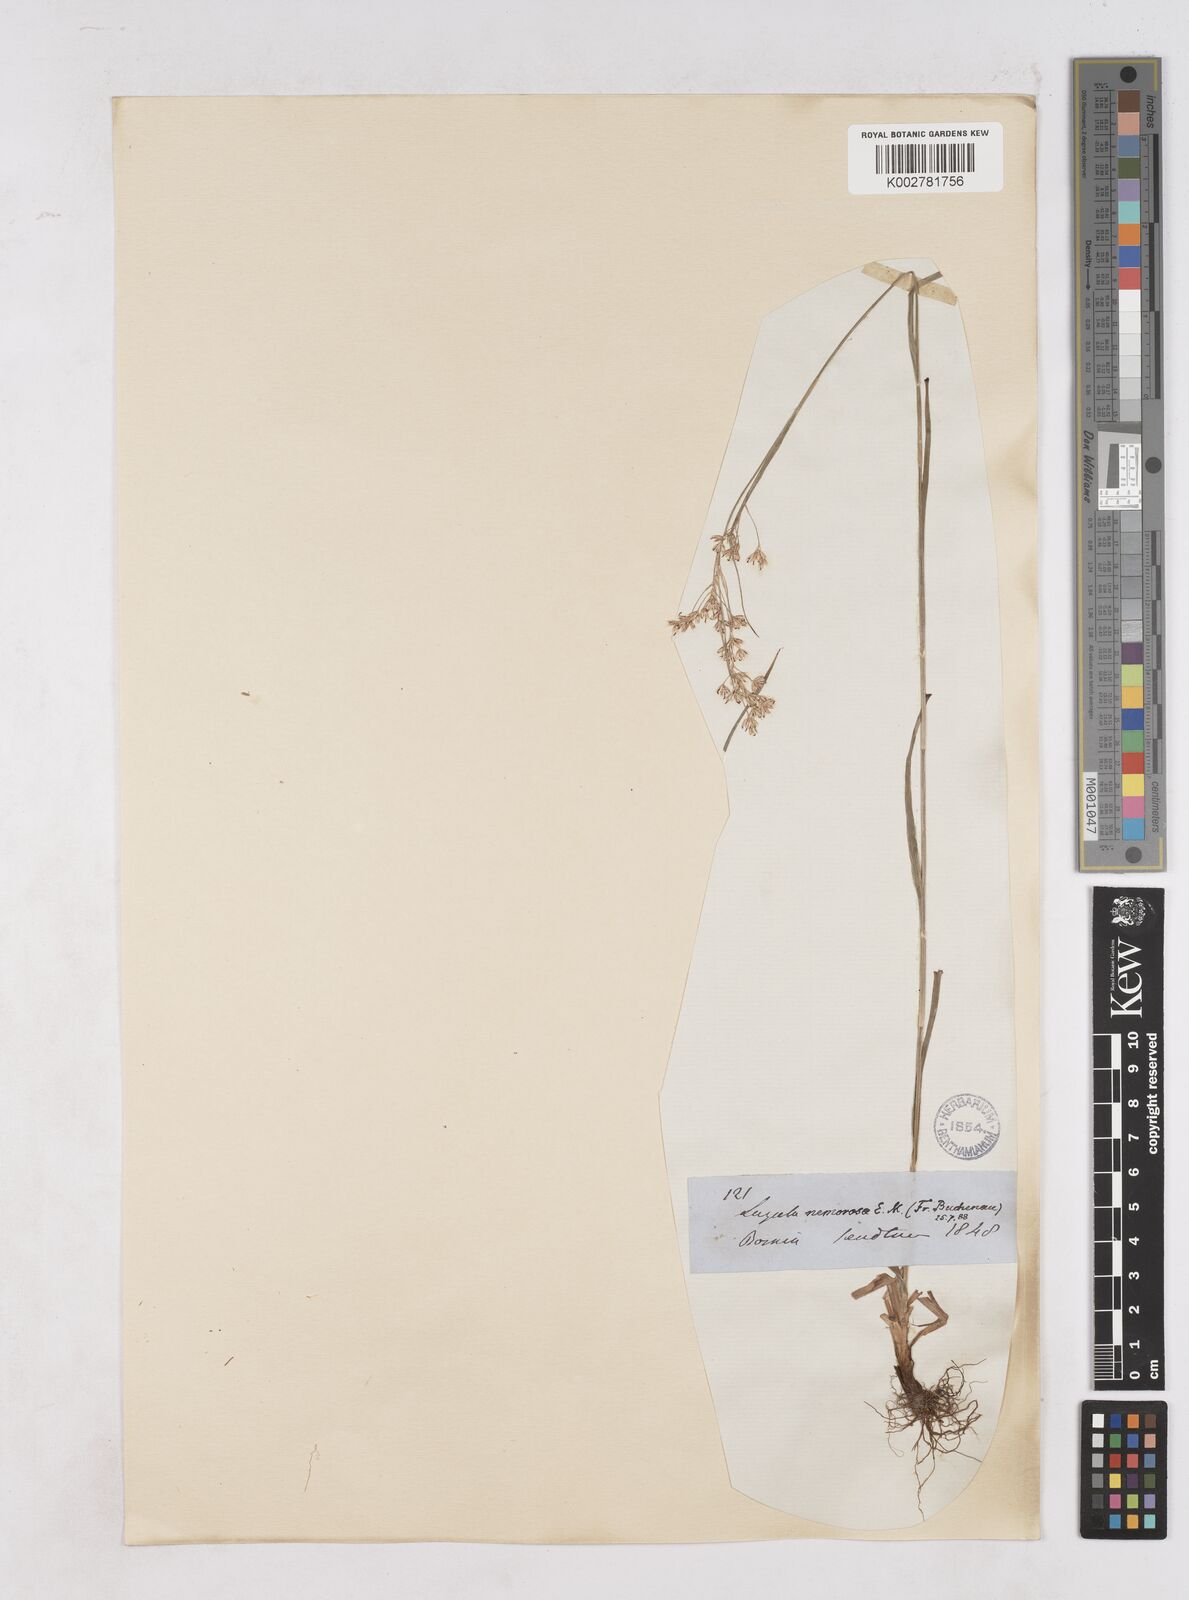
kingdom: Plantae
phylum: Tracheophyta
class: Liliopsida
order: Poales
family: Juncaceae
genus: Luzula
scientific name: Luzula luzuloides
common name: White wood-rush
